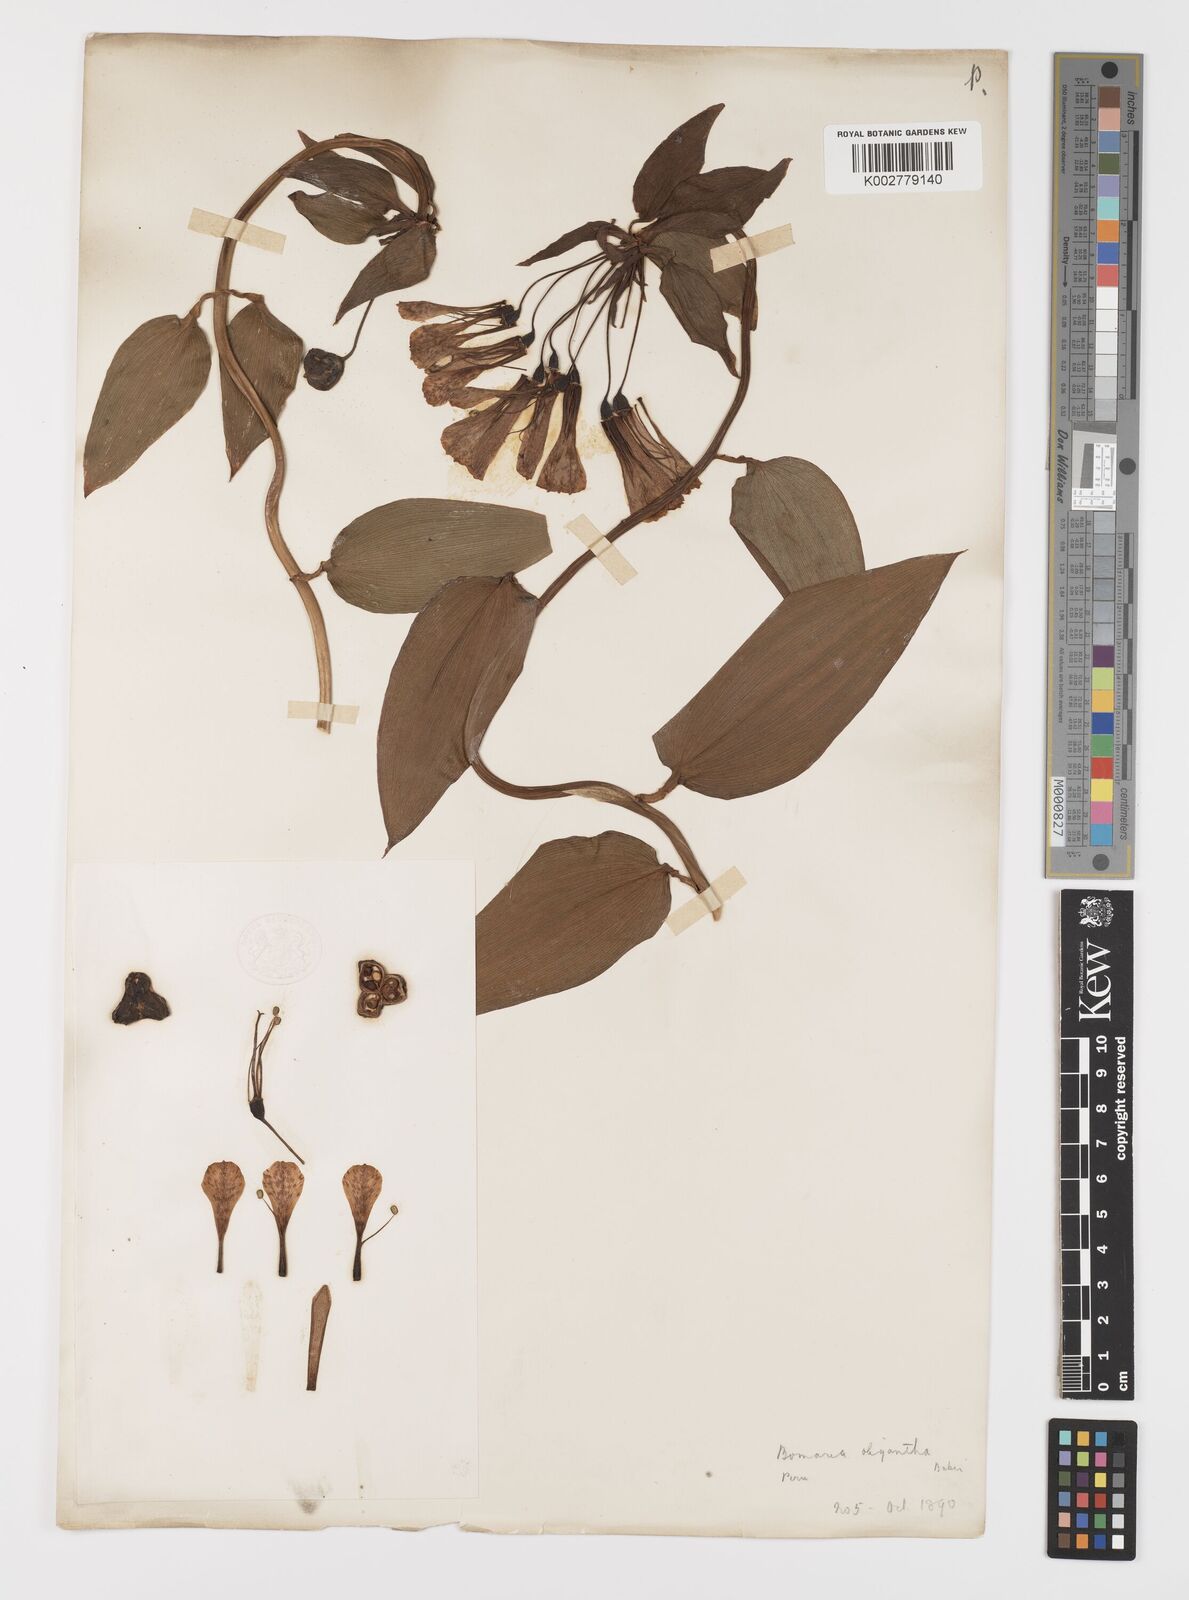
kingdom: Plantae
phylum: Tracheophyta
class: Liliopsida
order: Liliales
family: Alstroemeriaceae
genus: Bomarea
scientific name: Bomarea multiflora
